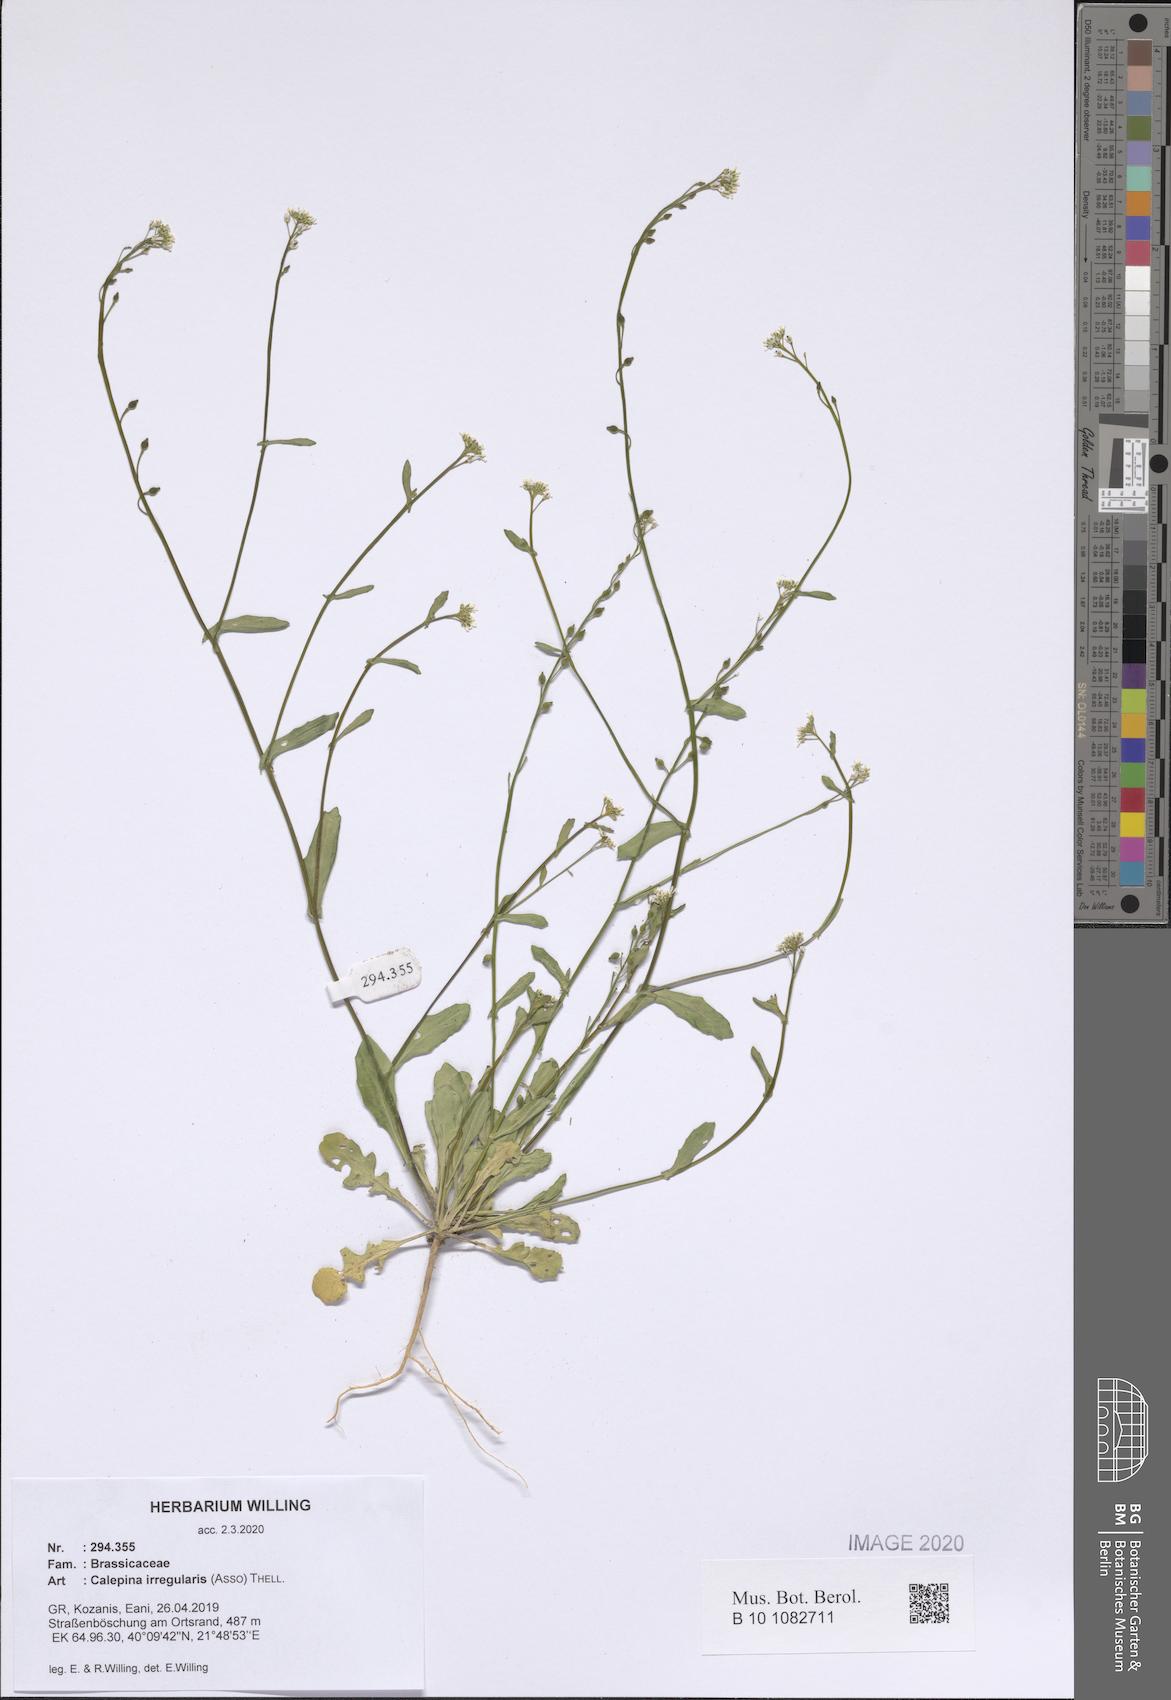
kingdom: Plantae
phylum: Tracheophyta
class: Magnoliopsida
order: Brassicales
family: Brassicaceae
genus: Calepina
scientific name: Calepina irregularis
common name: White ballmustard
